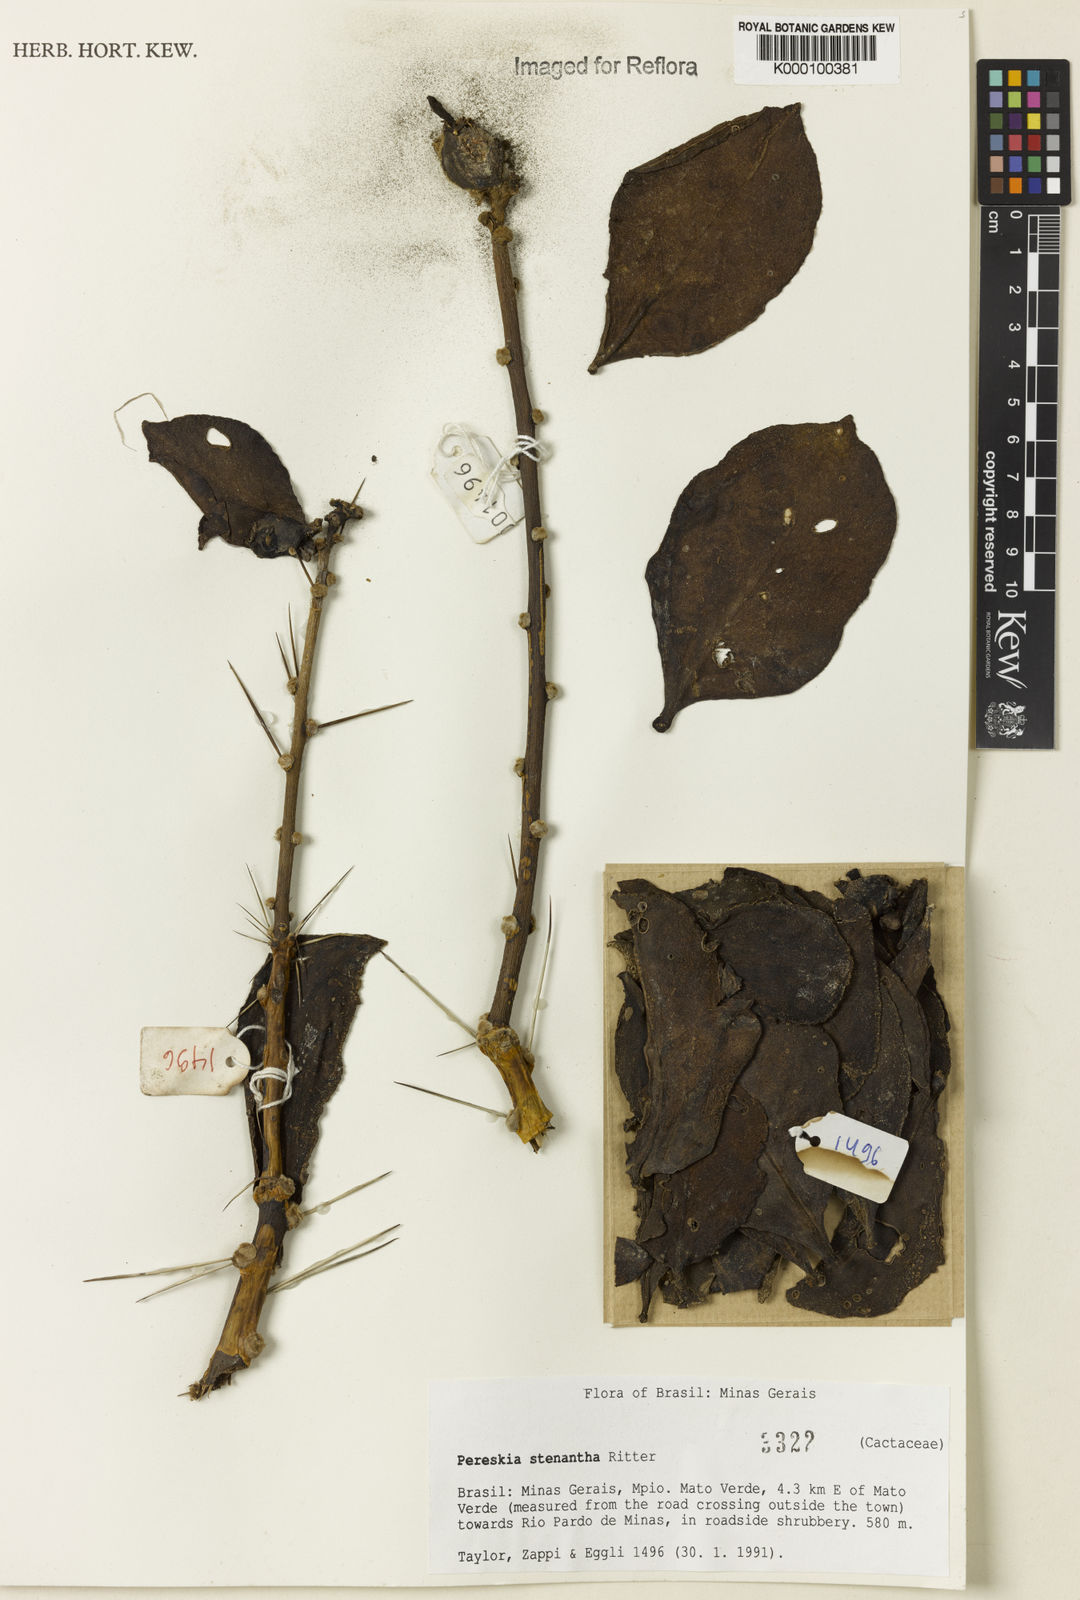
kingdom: Plantae
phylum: Tracheophyta
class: Magnoliopsida
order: Caryophyllales
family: Cactaceae
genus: Pereskia
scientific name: Pereskia stenantha
